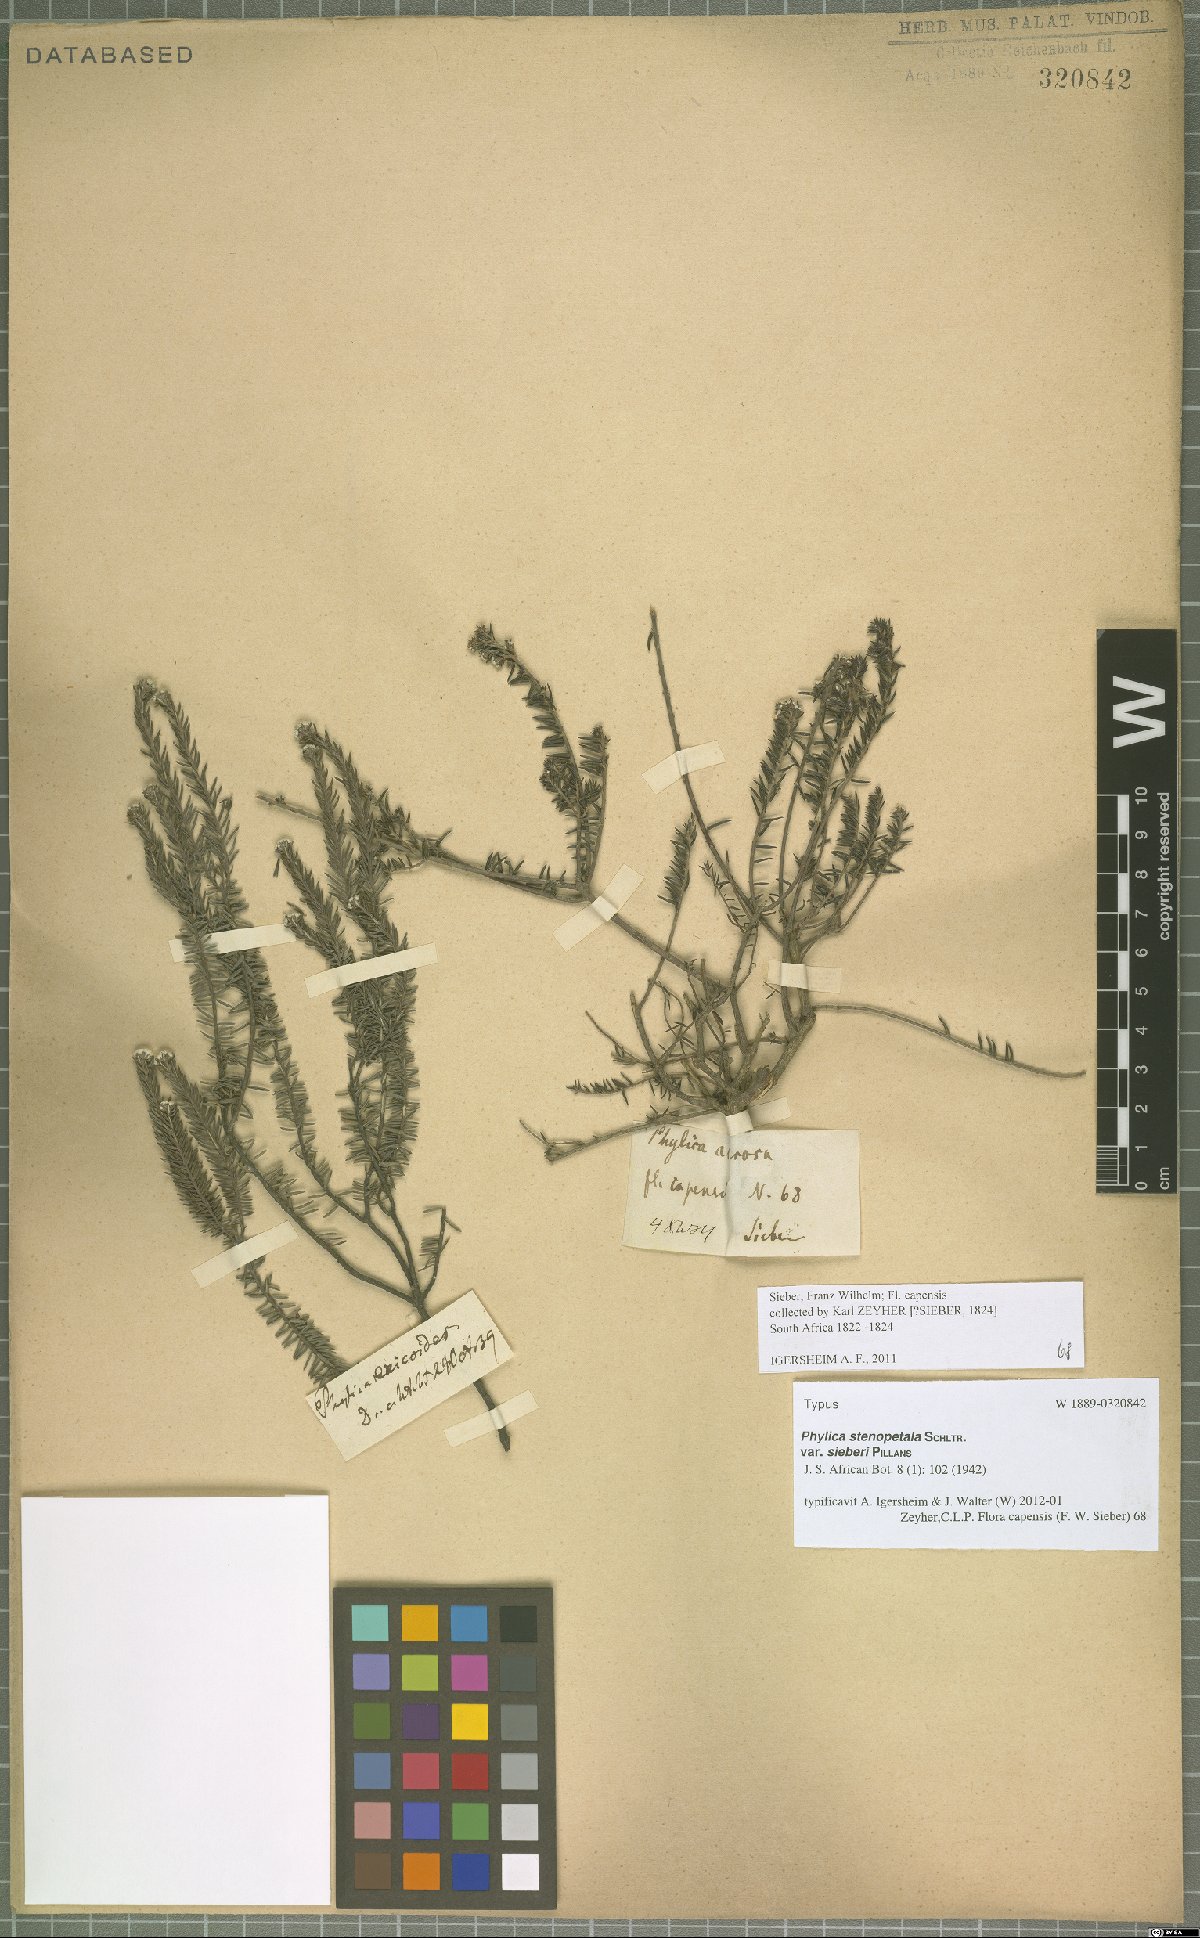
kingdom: Plantae
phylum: Tracheophyta
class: Magnoliopsida
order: Rosales
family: Rhamnaceae
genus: Phylica
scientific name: Phylica stenopetala
